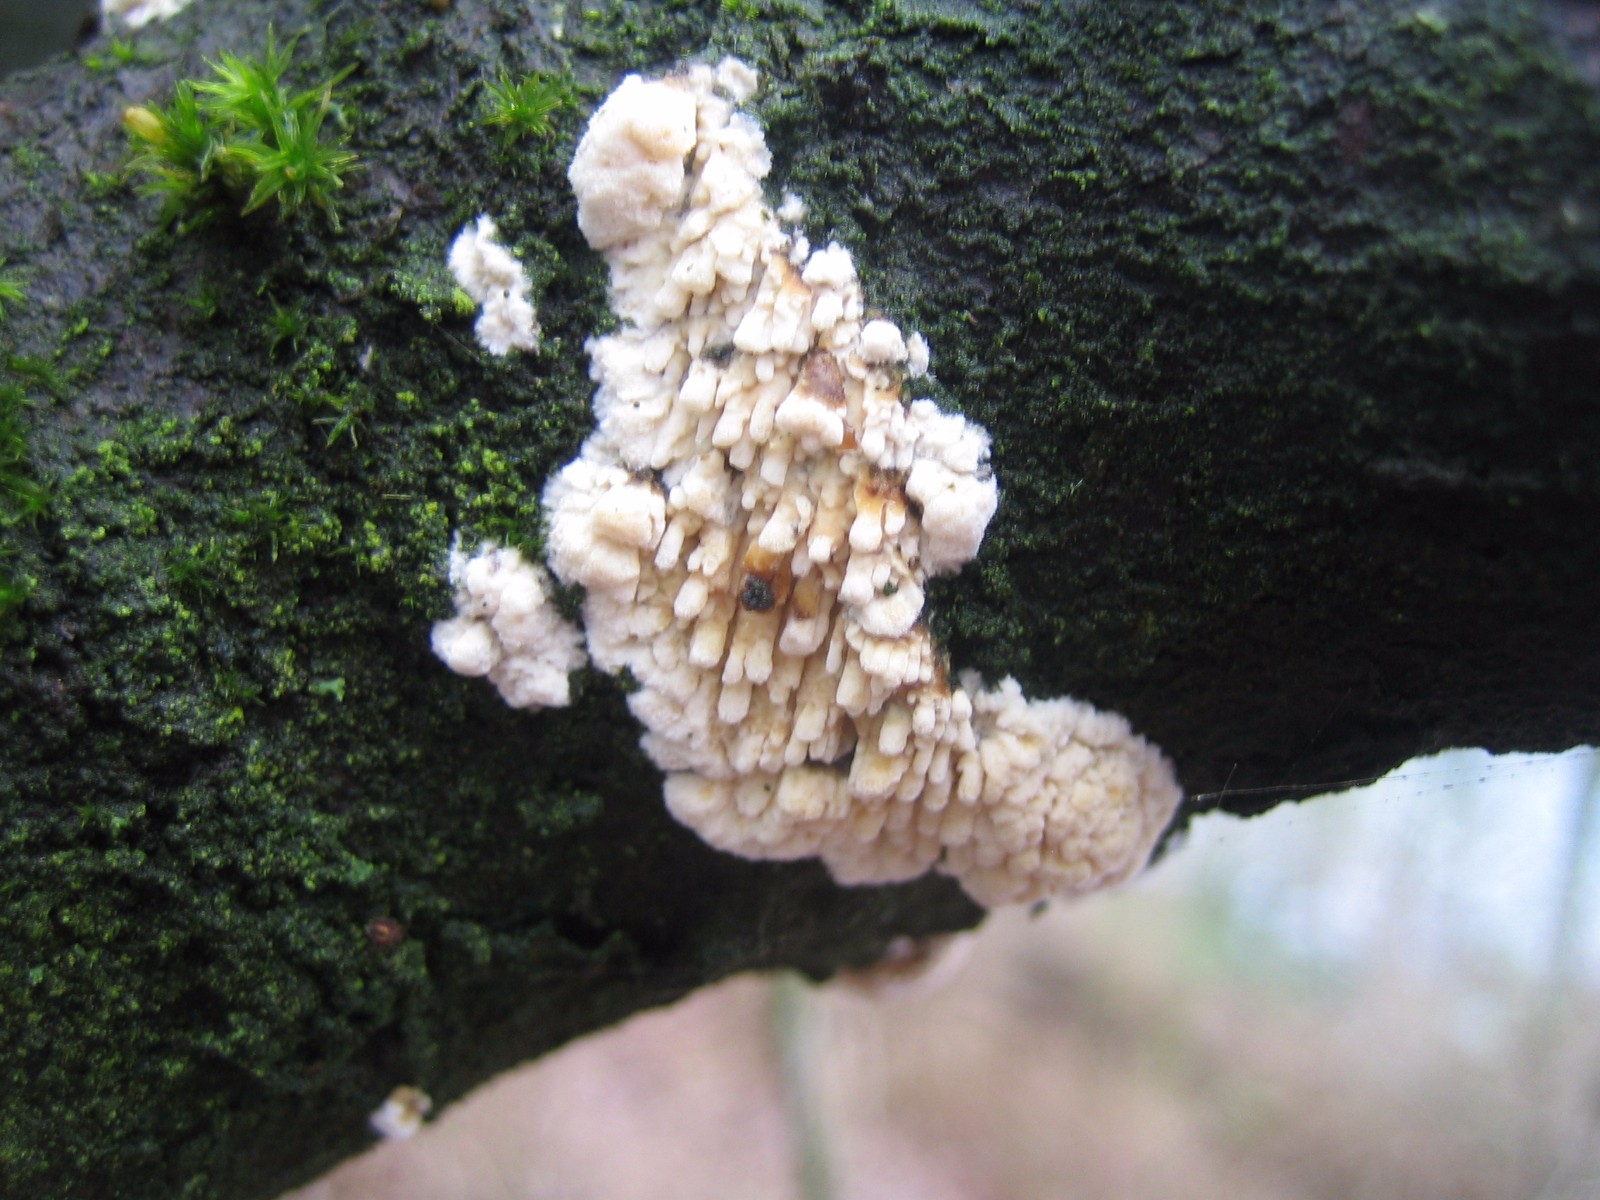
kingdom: Fungi
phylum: Basidiomycota
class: Agaricomycetes
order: Hymenochaetales
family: Schizoporaceae
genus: Xylodon
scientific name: Xylodon radula
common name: grovtandet kalkskind
